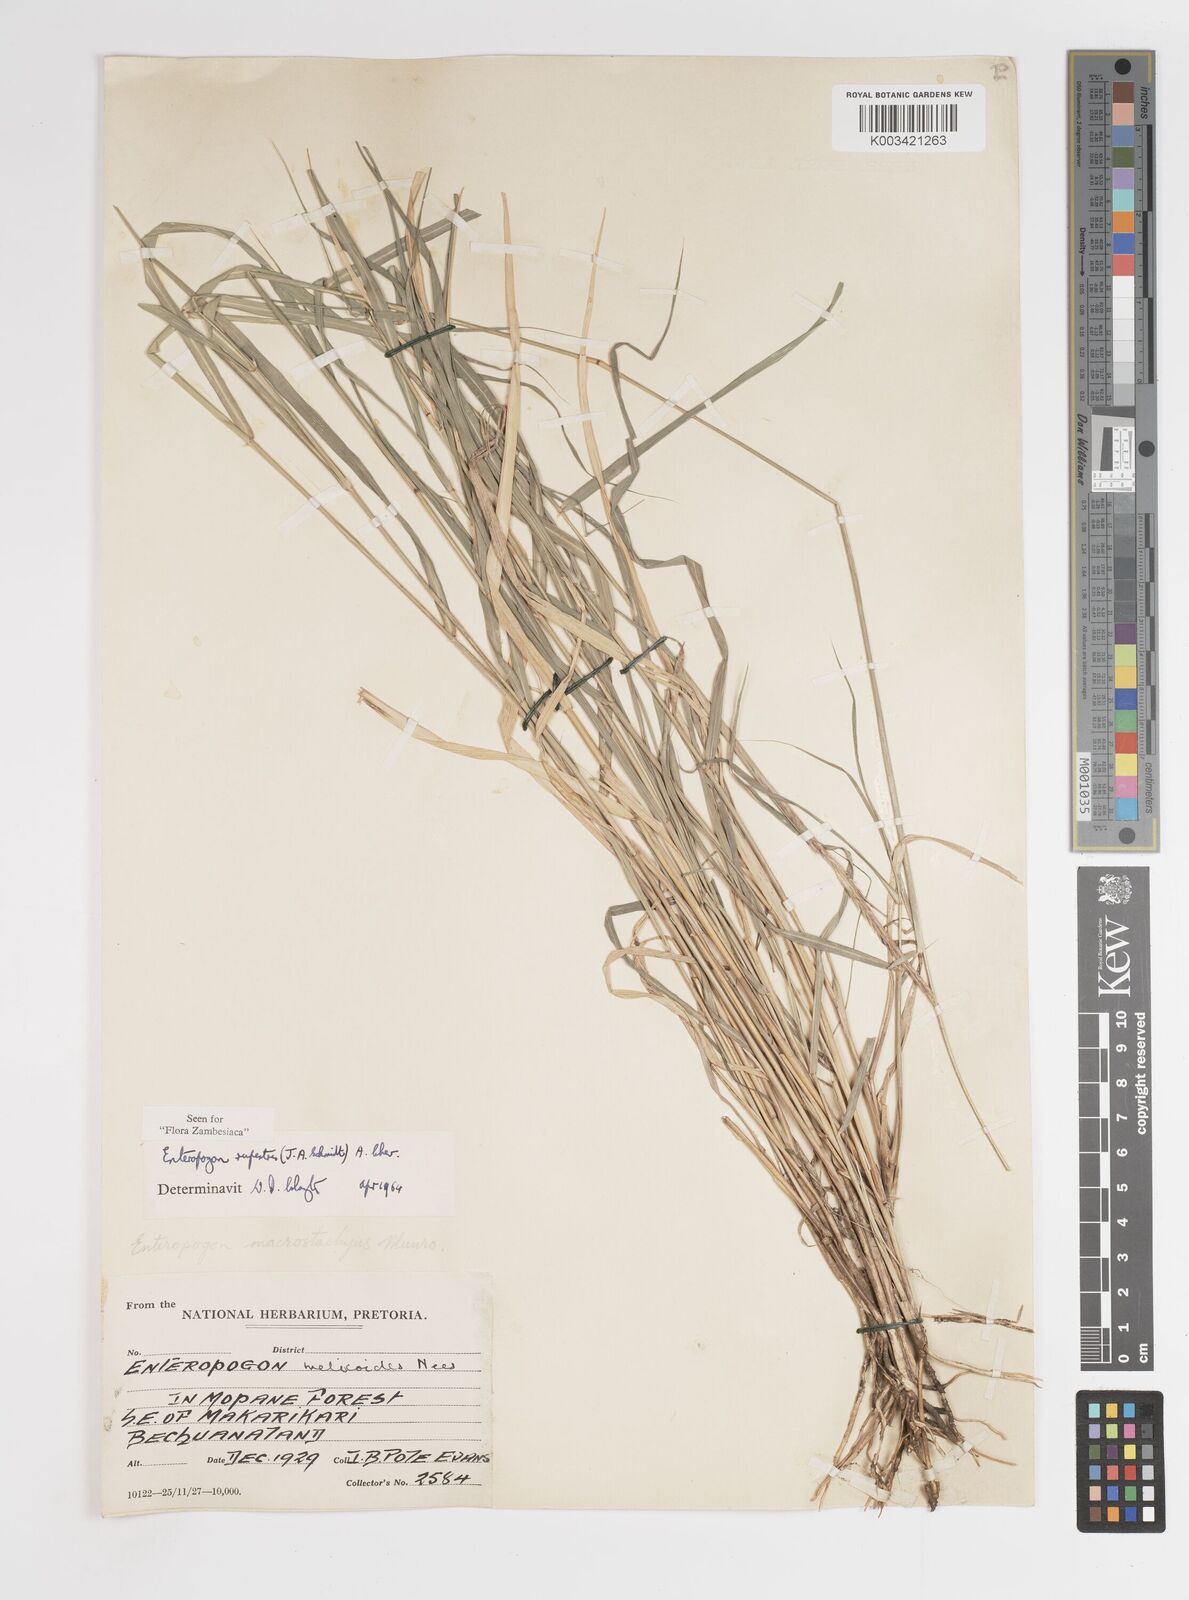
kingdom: Plantae
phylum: Tracheophyta
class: Liliopsida
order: Poales
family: Poaceae
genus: Enteropogon
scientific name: Enteropogon rupestris
